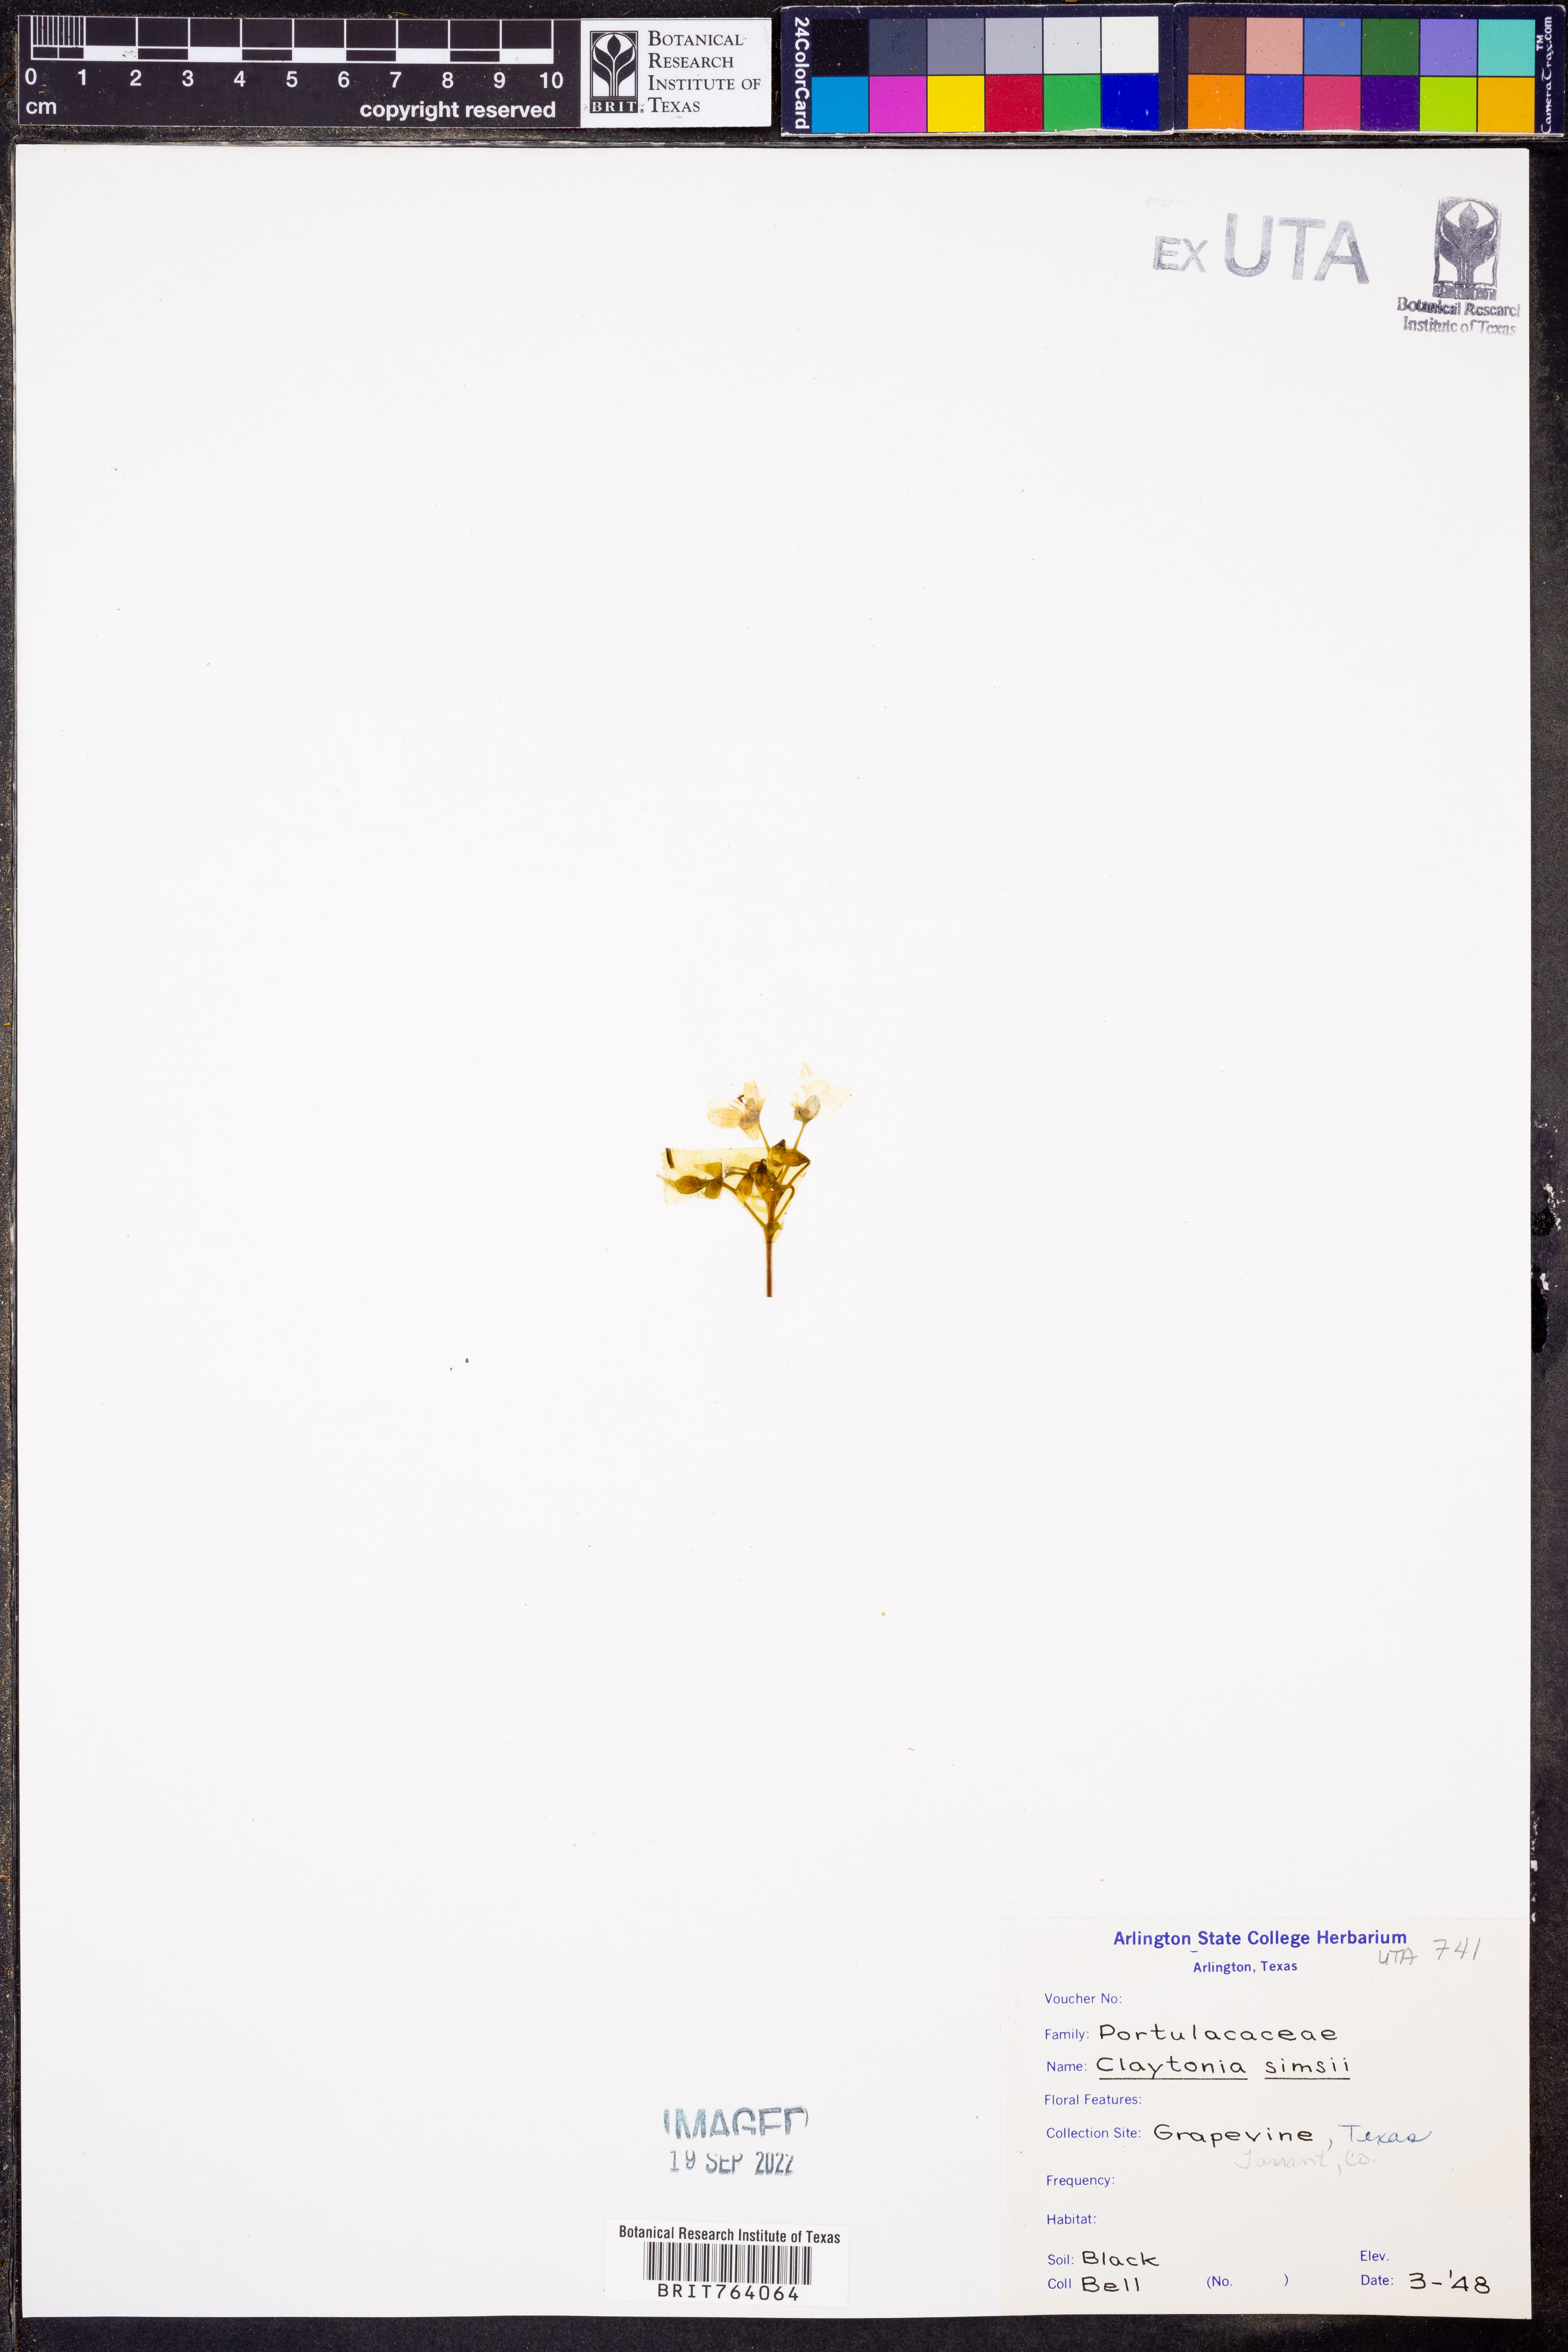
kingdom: Plantae
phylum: Tracheophyta
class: Magnoliopsida
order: Caryophyllales
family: Montiaceae
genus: Claytonia
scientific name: Claytonia virginica
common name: Virginia springbeauty
